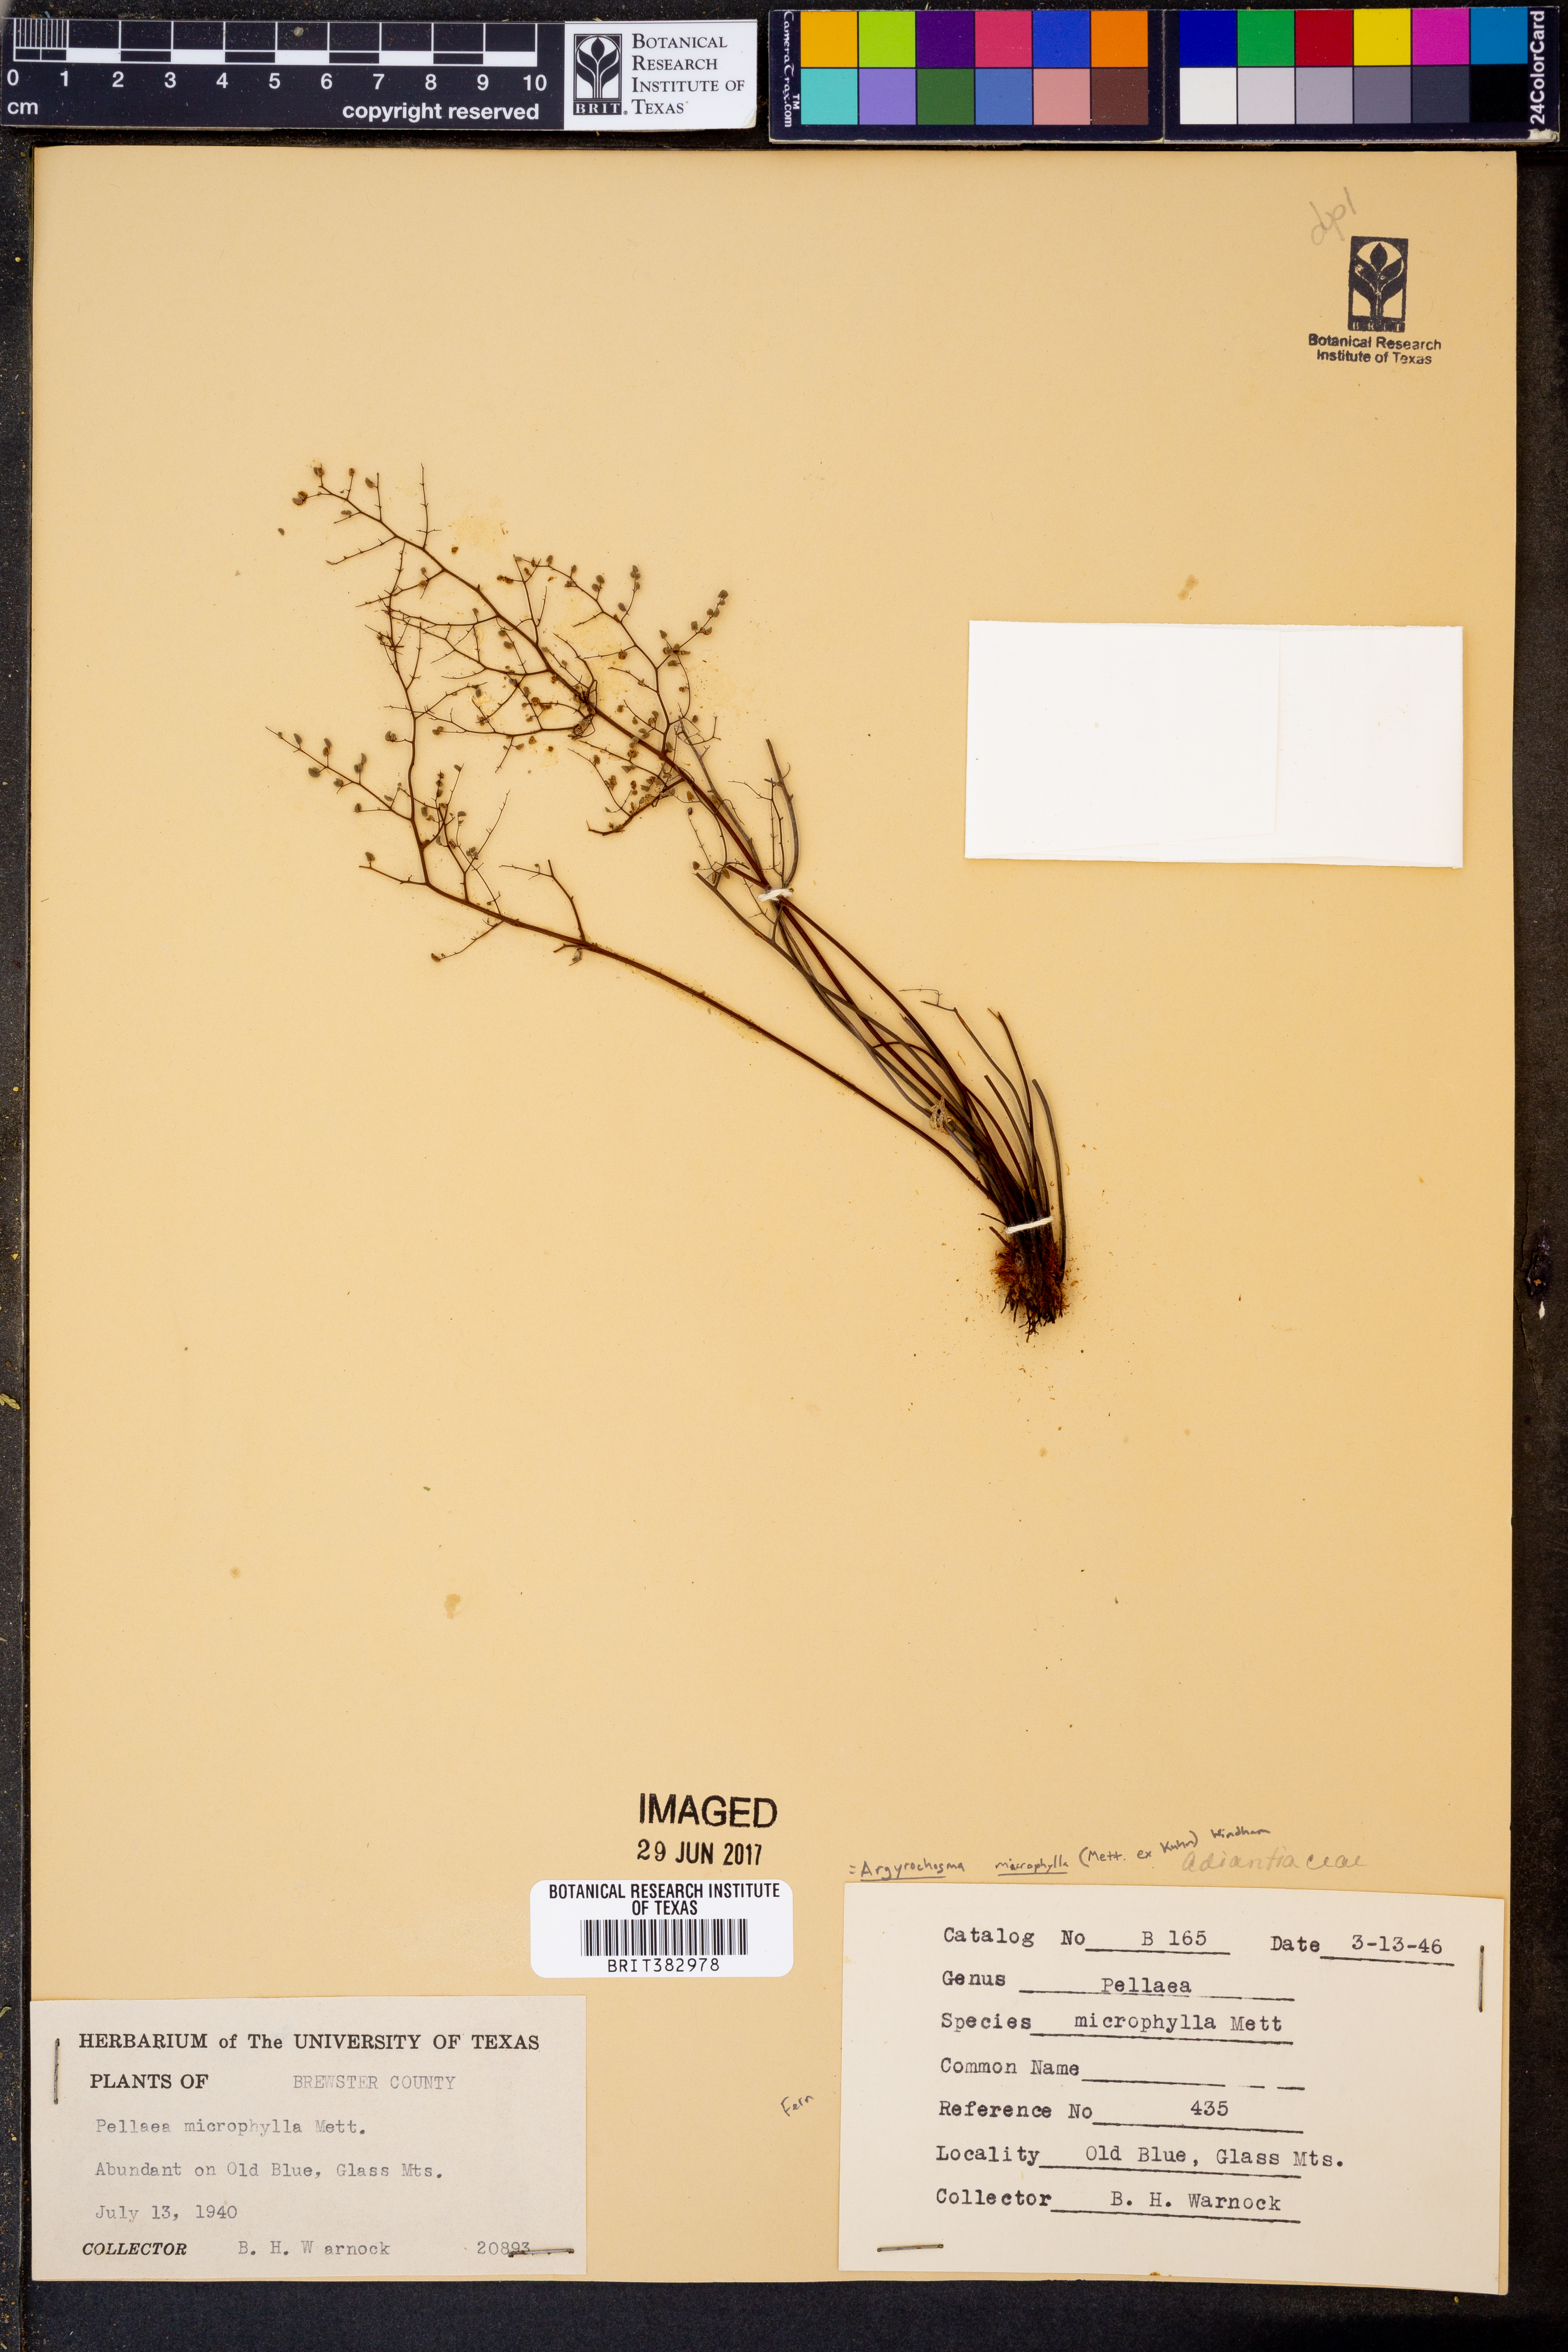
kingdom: Plantae
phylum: Tracheophyta
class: Polypodiopsida
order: Polypodiales
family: Pteridaceae
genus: Argyrochosma
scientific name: Argyrochosma microphylla
